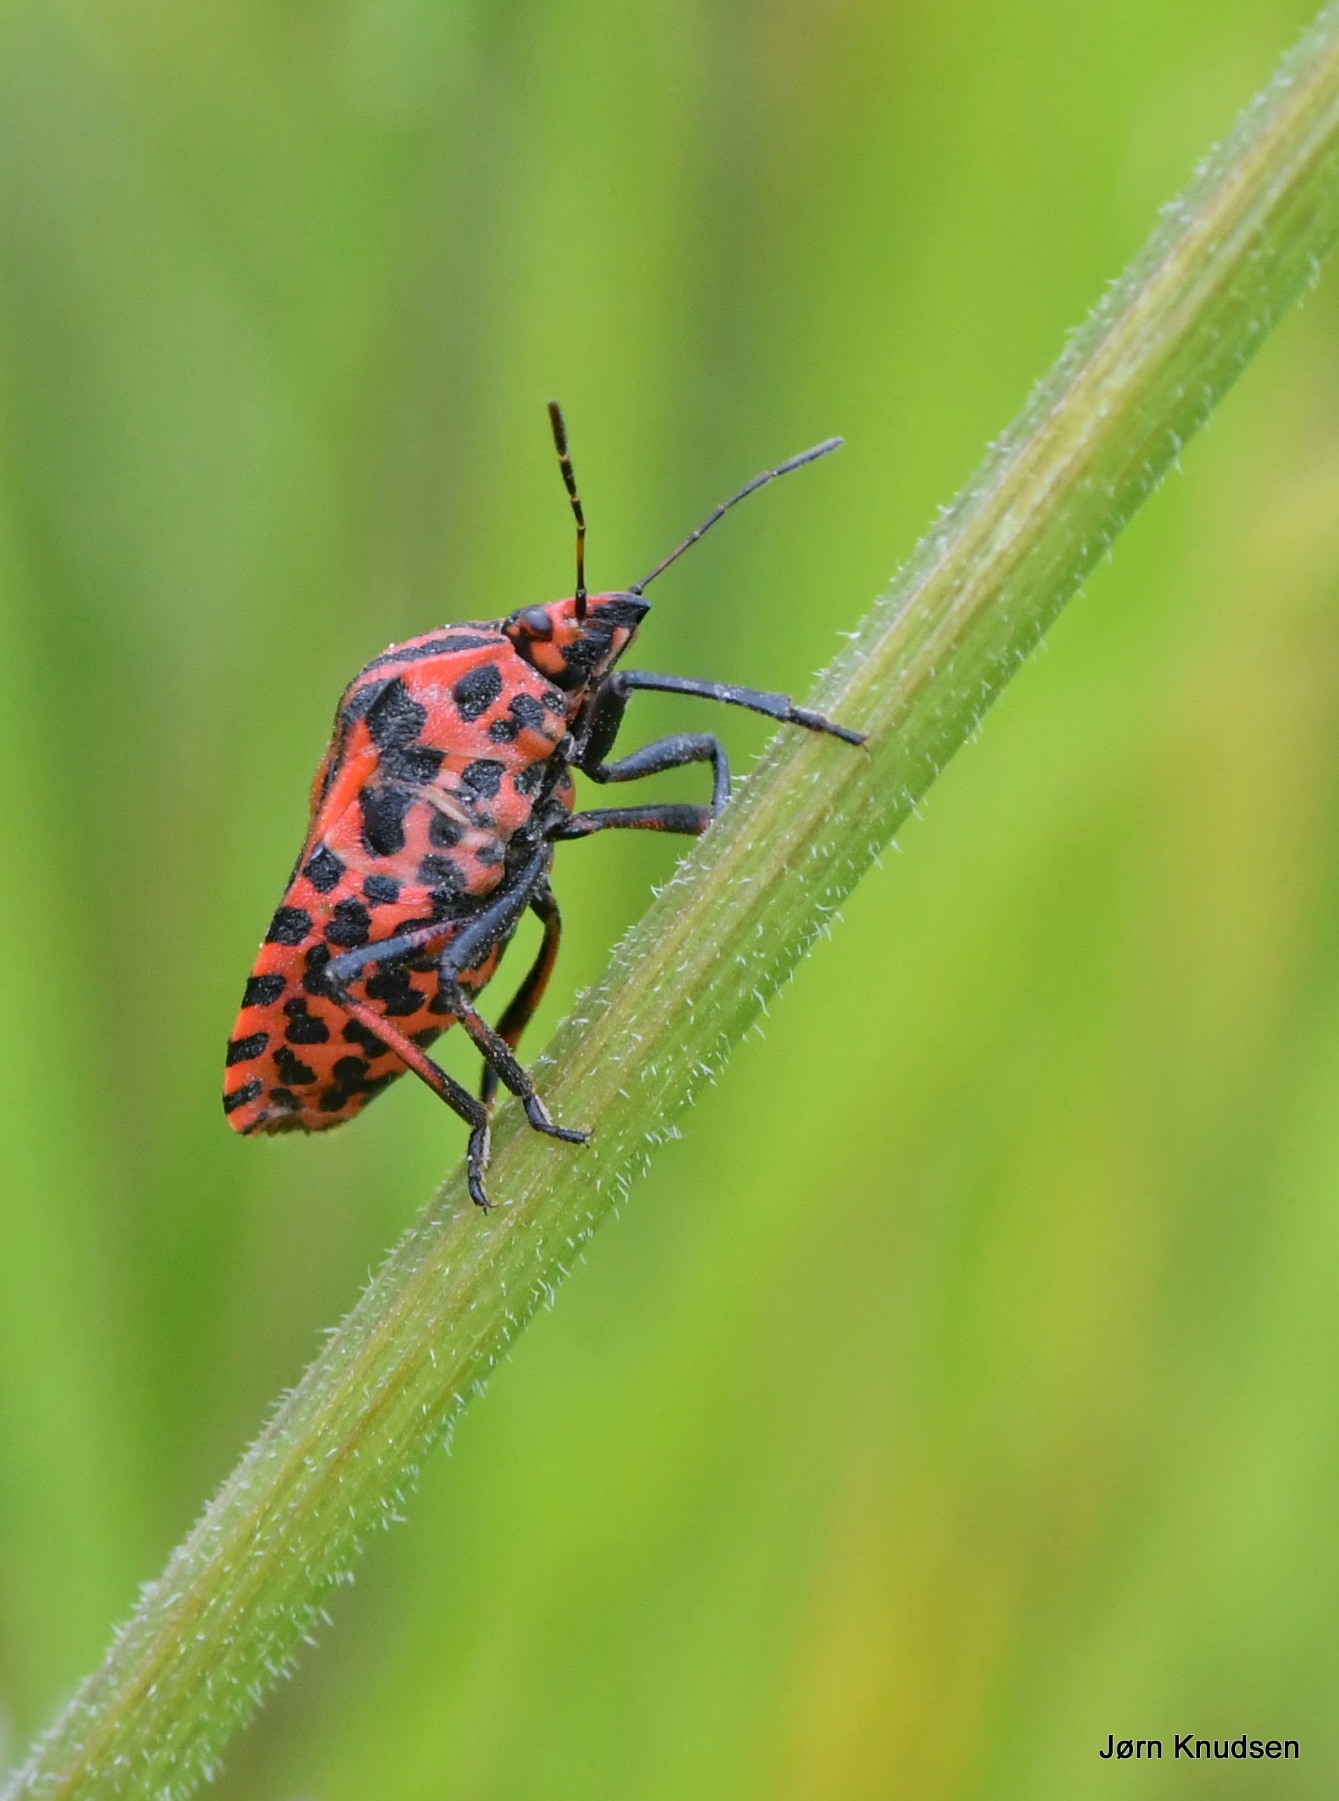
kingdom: Animalia
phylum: Arthropoda
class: Insecta
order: Hemiptera
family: Pentatomidae
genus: Graphosoma
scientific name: Graphosoma italicum
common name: Stribetæge
